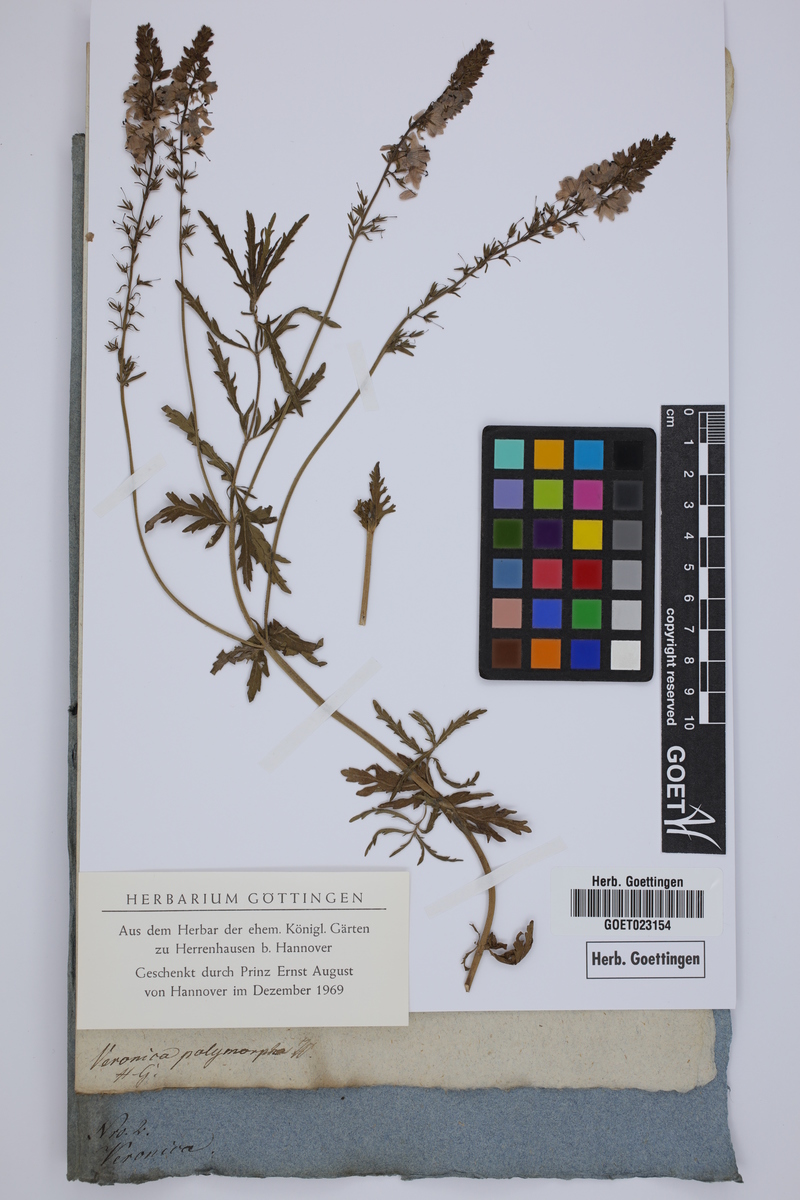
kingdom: Plantae
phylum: Tracheophyta
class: Magnoliopsida
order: Lamiales
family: Plantaginaceae
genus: Veronica
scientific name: Veronica austriaca
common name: Large speedwell
